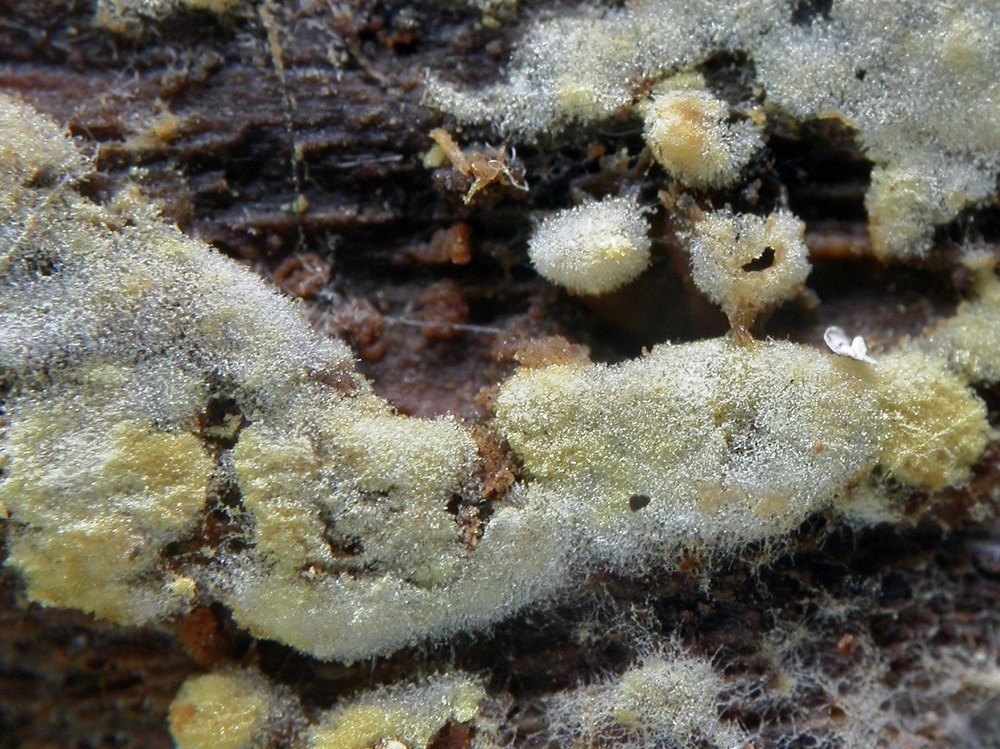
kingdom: Fungi
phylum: Basidiomycota
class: Agaricomycetes
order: Cantharellales
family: Botryobasidiaceae
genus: Botryobasidium
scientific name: Botryobasidium aureum
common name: gylden spindhinde
